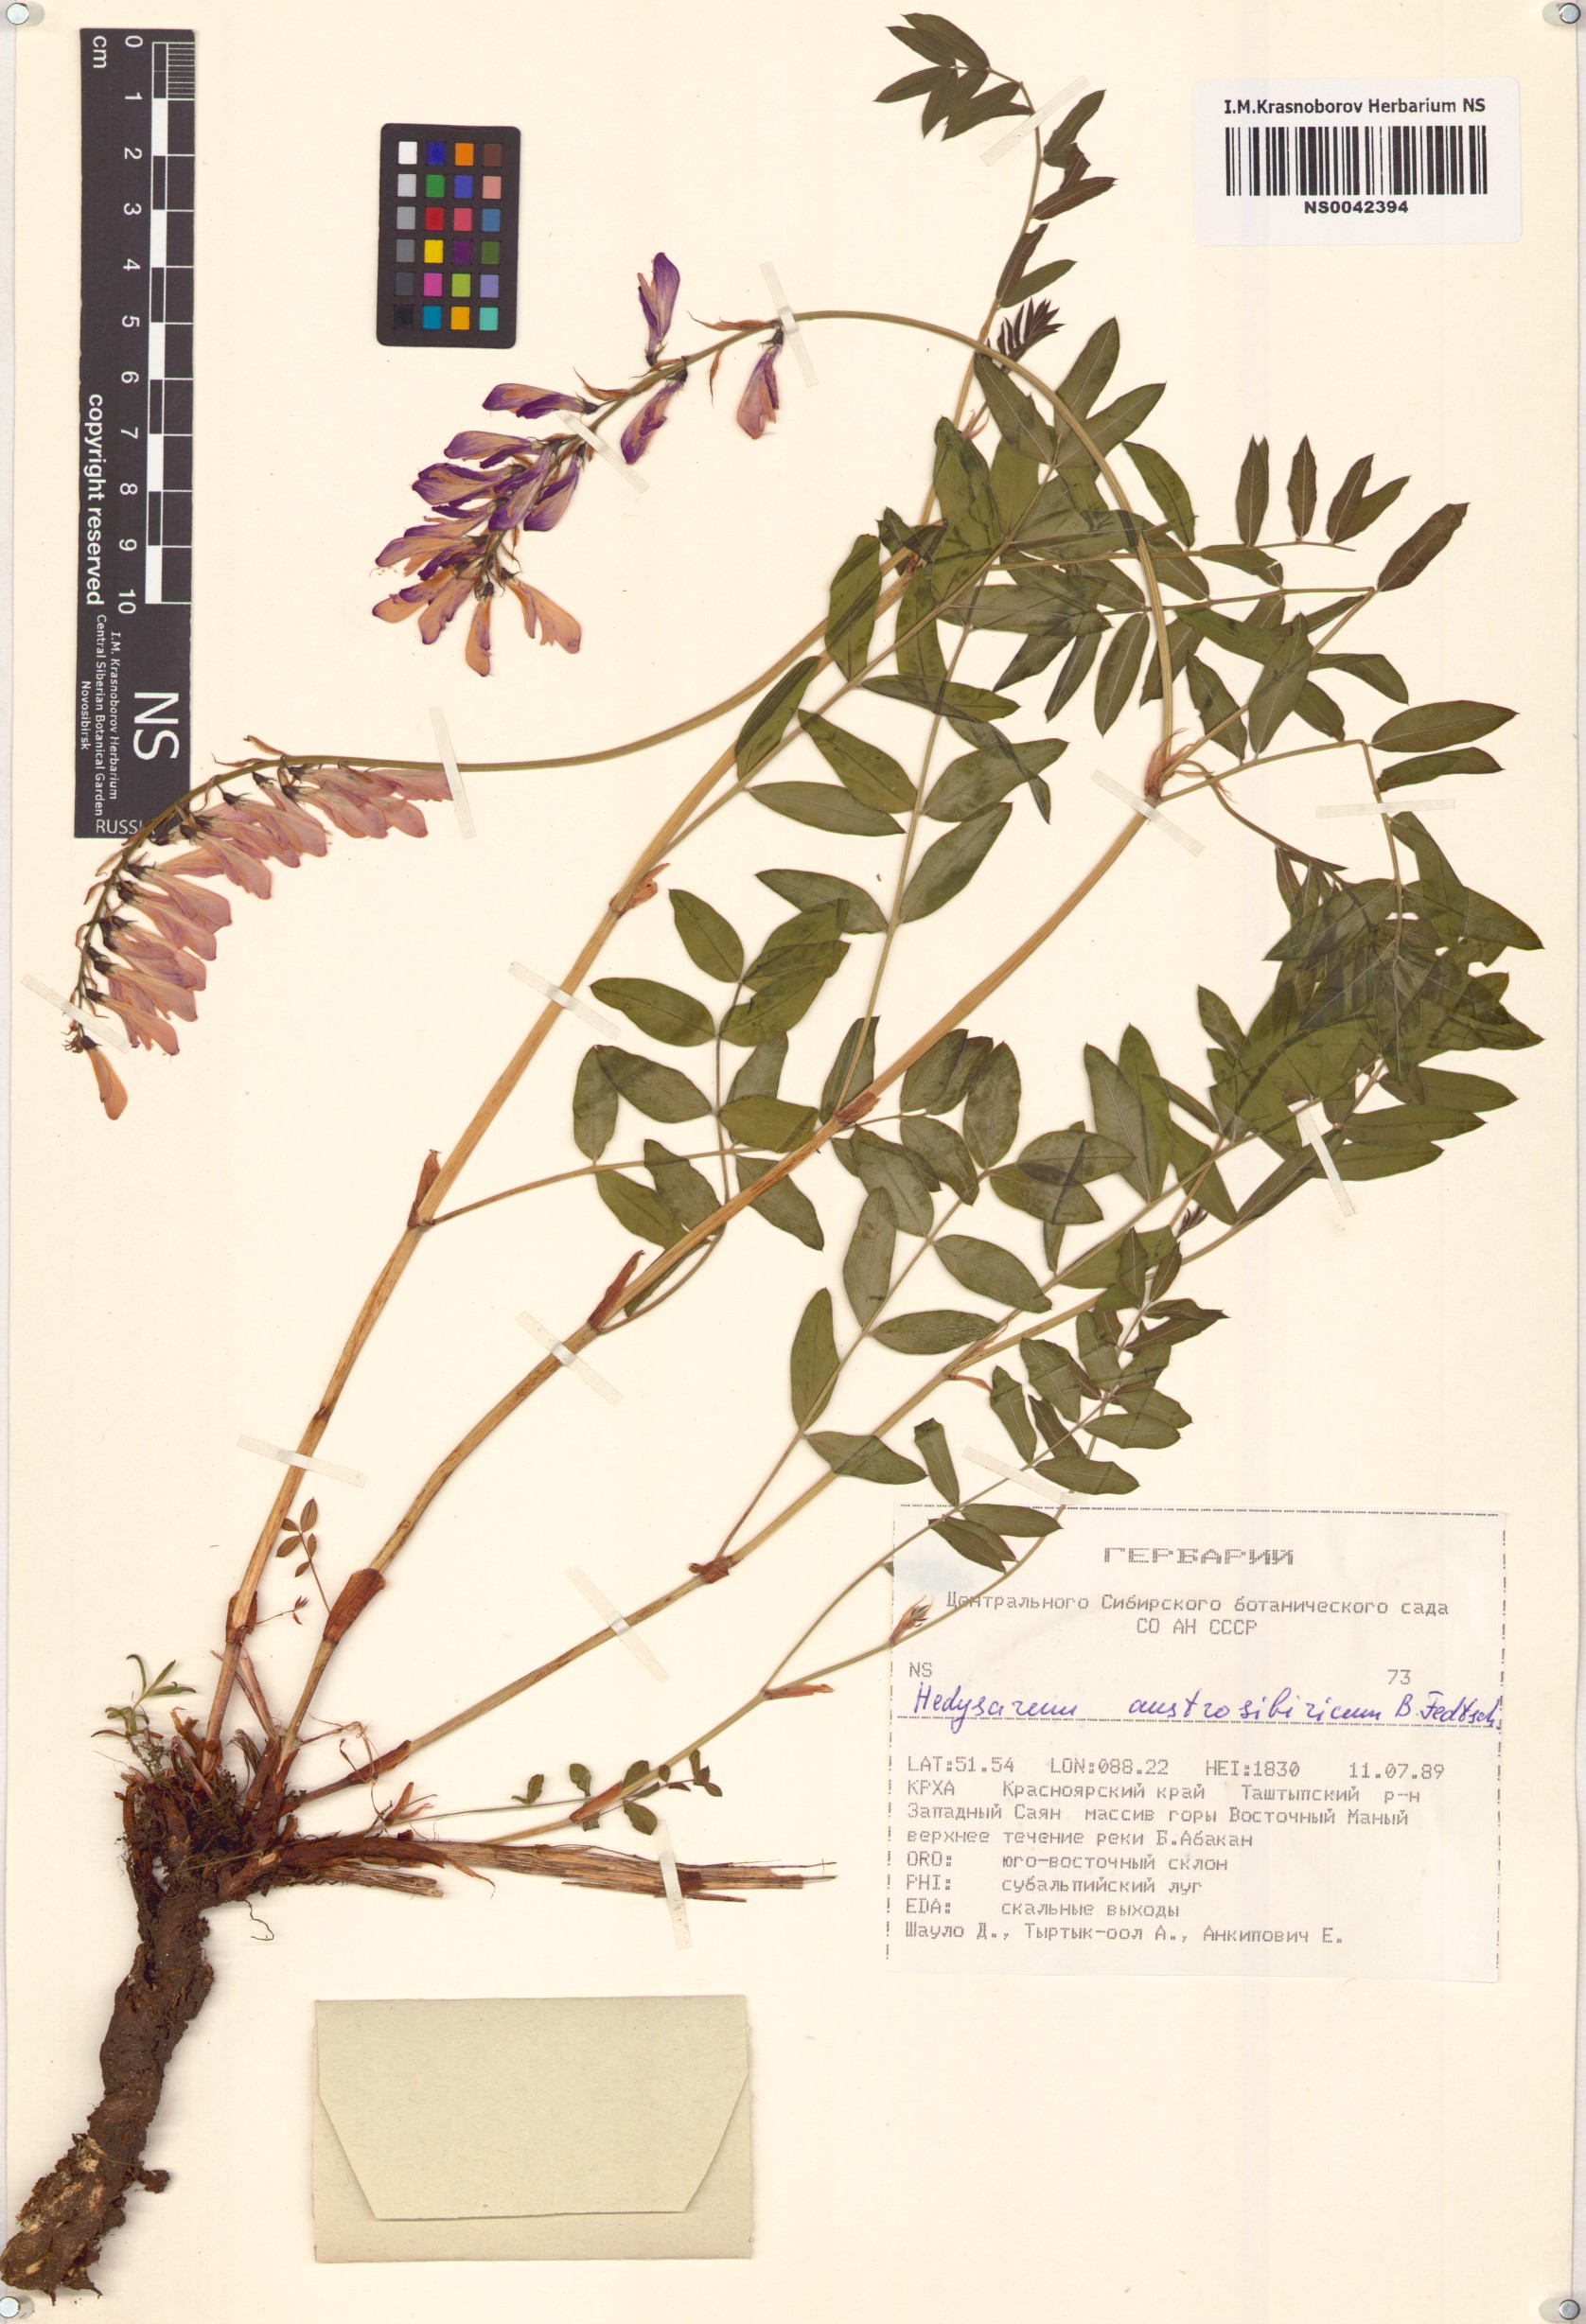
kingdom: Plantae
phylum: Tracheophyta
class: Magnoliopsida
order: Fabales
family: Fabaceae
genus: Hedysarum
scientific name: Hedysarum neglectum
